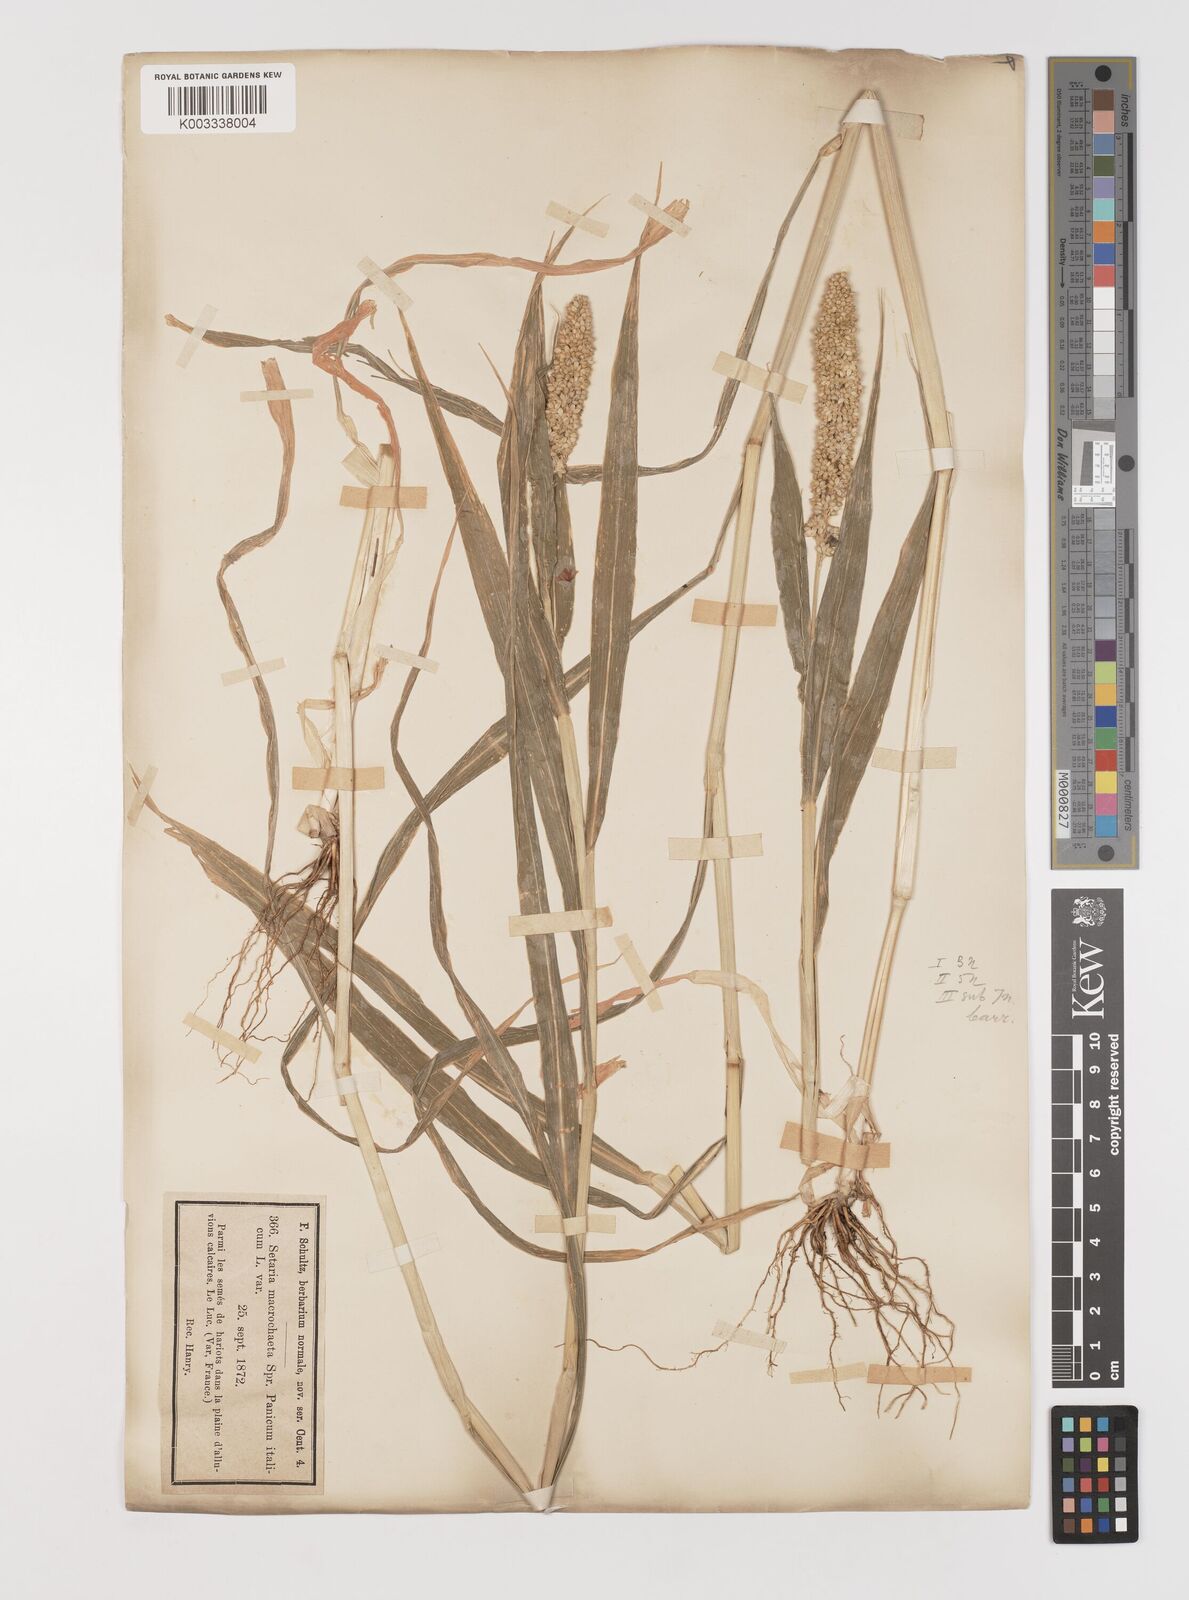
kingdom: Plantae
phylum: Tracheophyta
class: Liliopsida
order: Poales
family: Poaceae
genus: Setaria
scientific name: Setaria italica
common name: Foxtail bristle-grass
